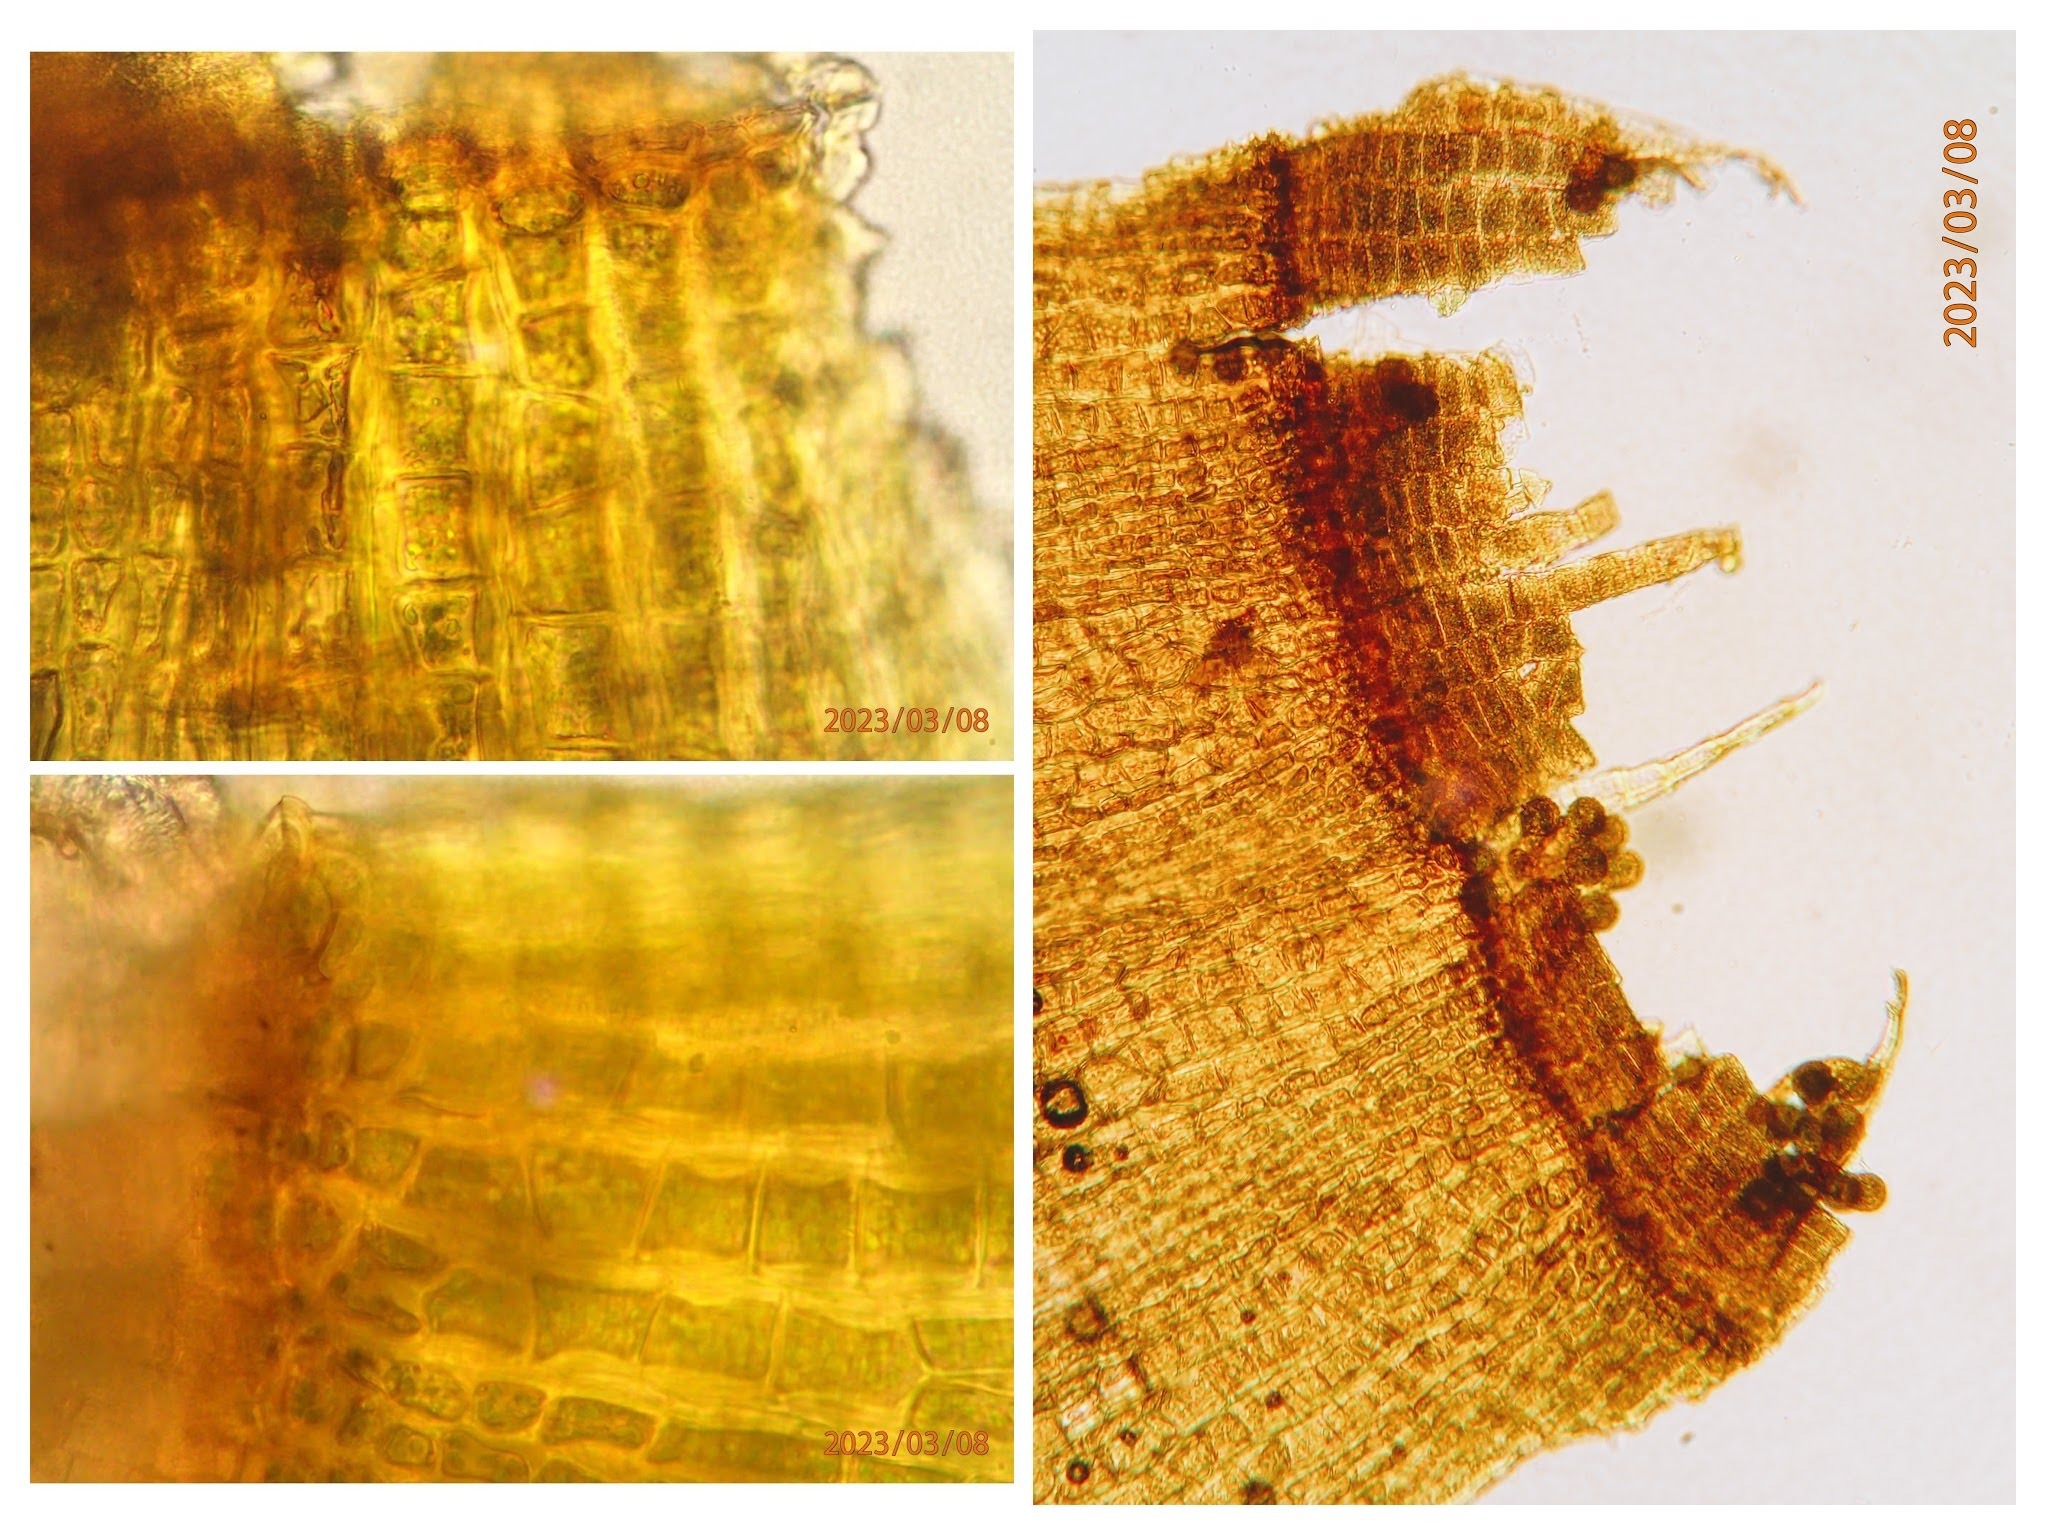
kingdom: Plantae
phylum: Bryophyta
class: Bryopsida
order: Orthotrichales
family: Orthotrichaceae
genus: Ulota
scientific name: Ulota crispa
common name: Kruset låddenhætte
